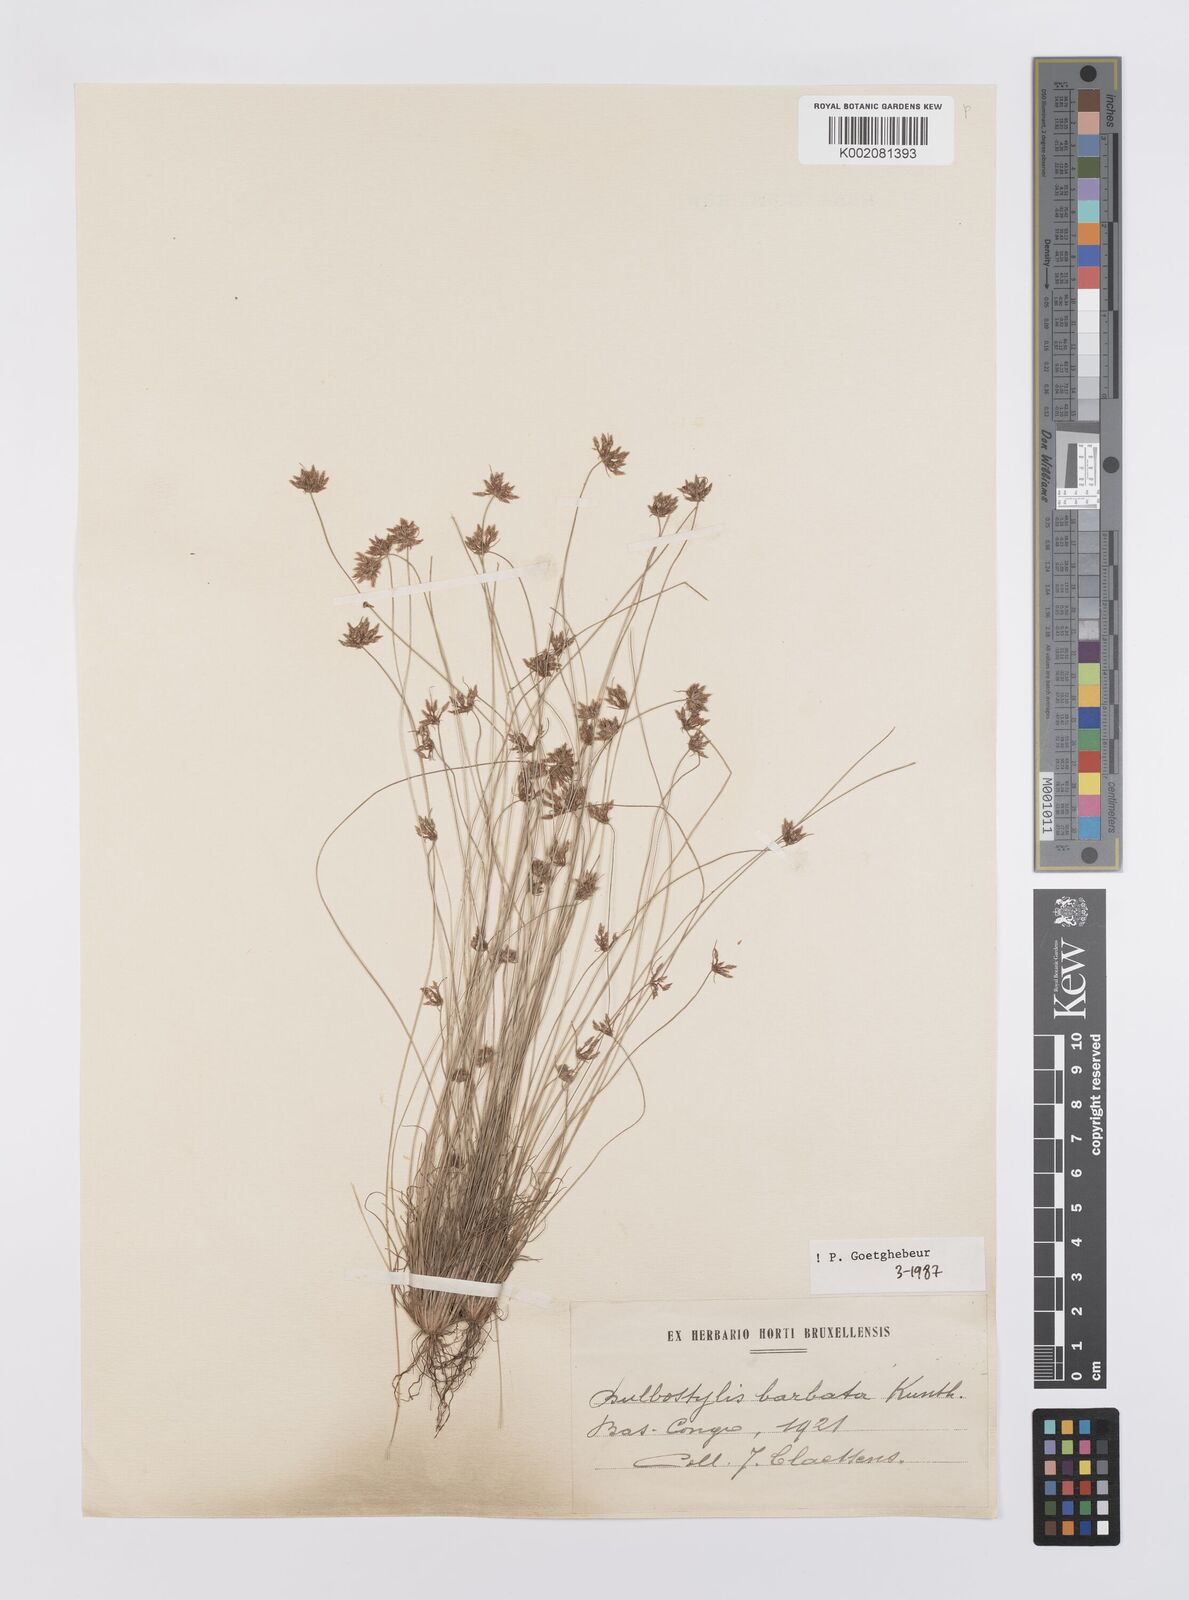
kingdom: Plantae
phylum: Tracheophyta
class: Liliopsida
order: Poales
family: Cyperaceae
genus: Bulbostylis
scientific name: Bulbostylis barbata
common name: Watergrass
